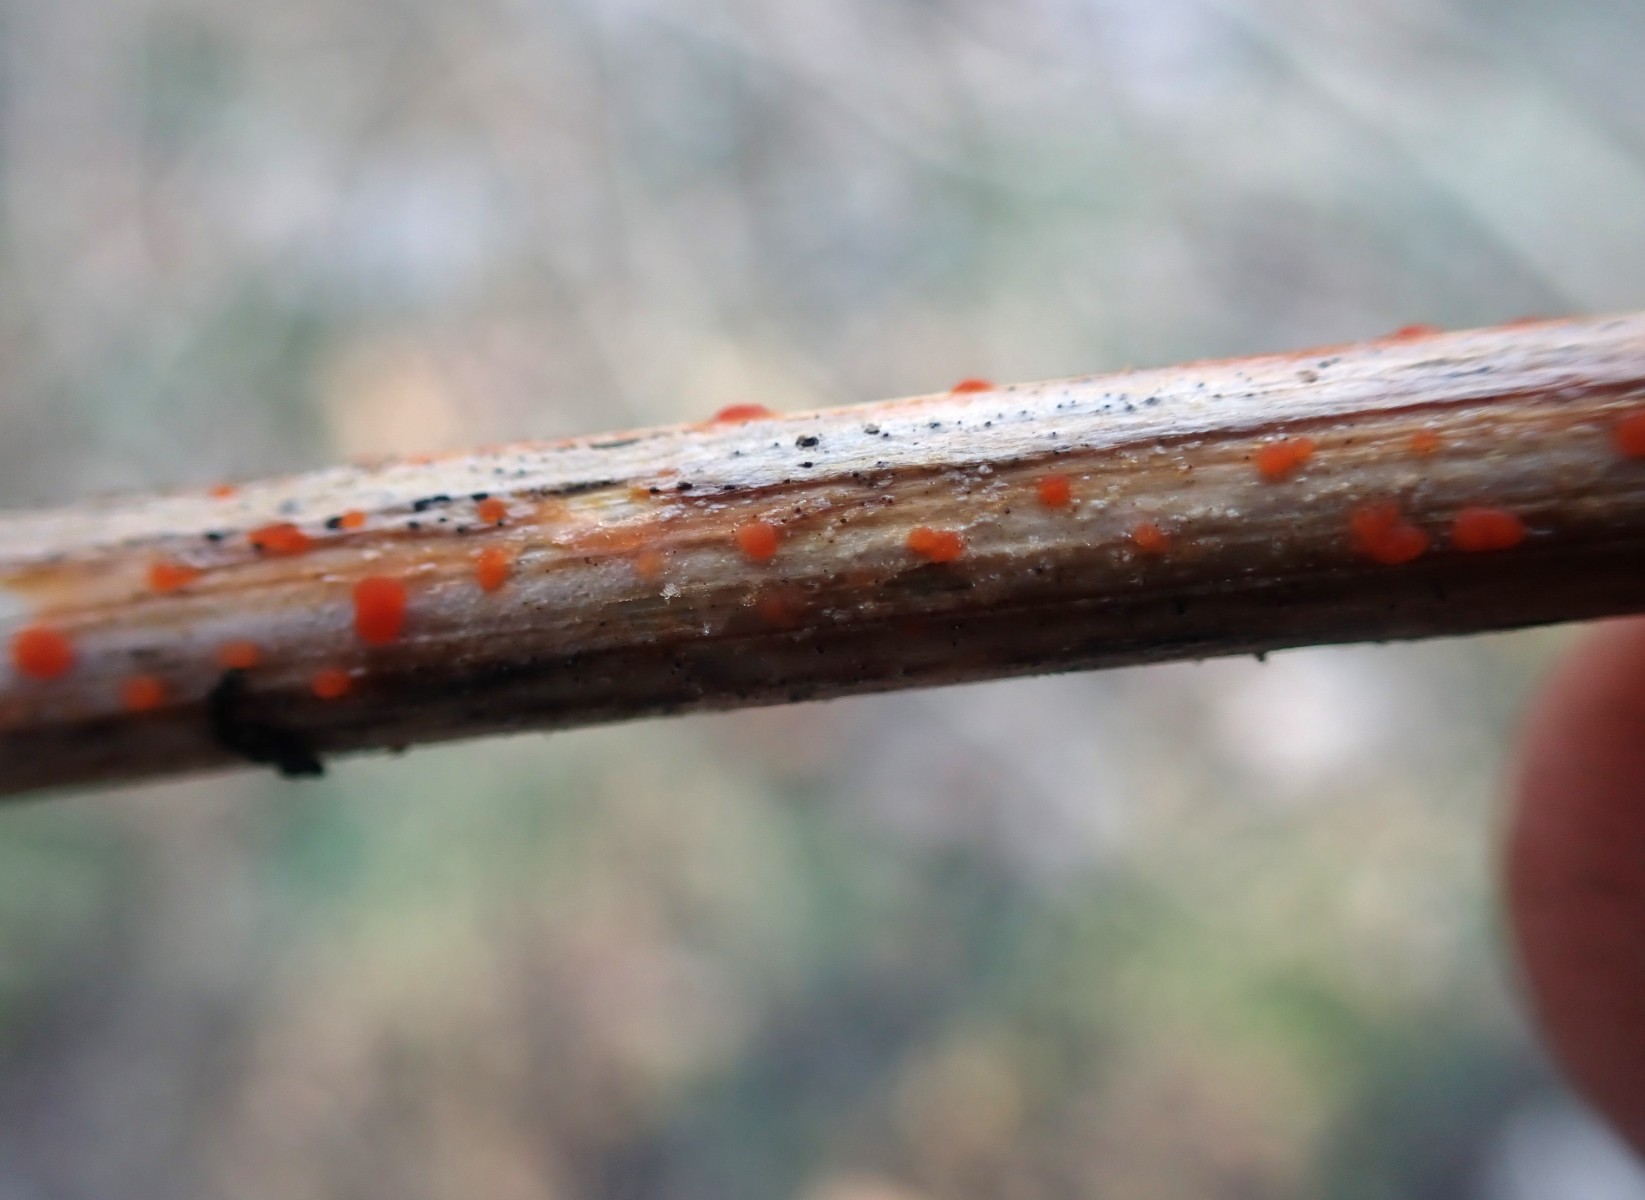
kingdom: Fungi
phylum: Ascomycota
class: Leotiomycetes
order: Helotiales
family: Calloriaceae
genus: Calloria
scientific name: Calloria urticae
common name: nælde-orangeskive
